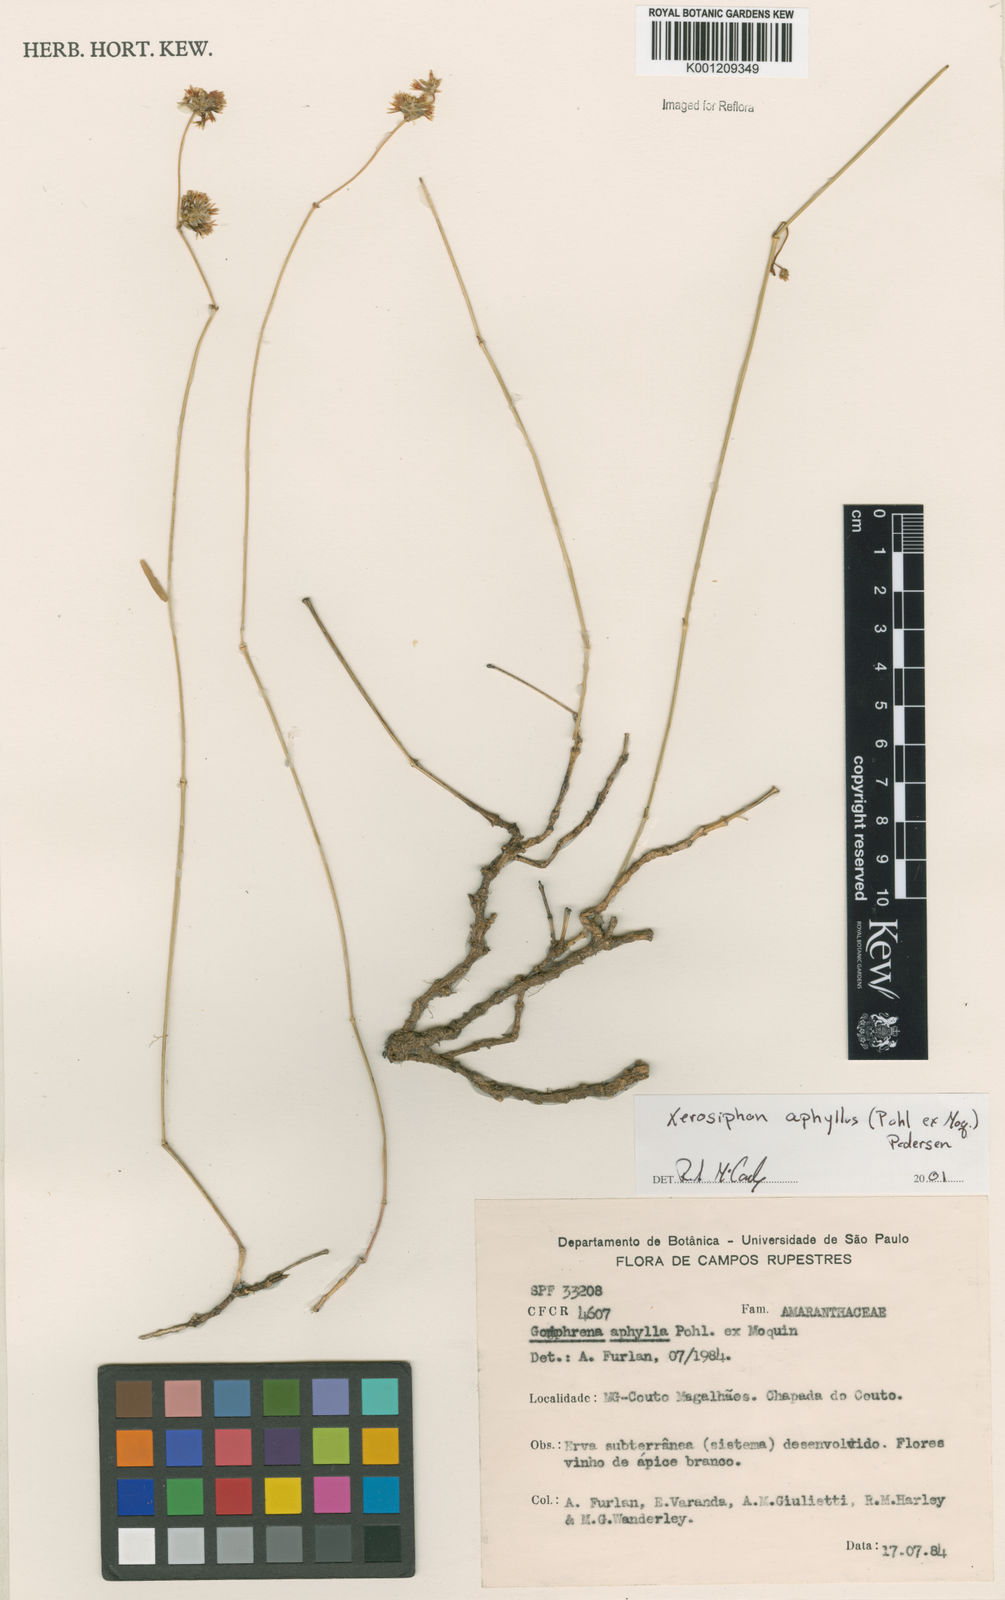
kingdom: Plantae
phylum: Tracheophyta
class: Magnoliopsida
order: Caryophyllales
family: Amaranthaceae
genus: Gomphrena
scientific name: Gomphrena aphylla
